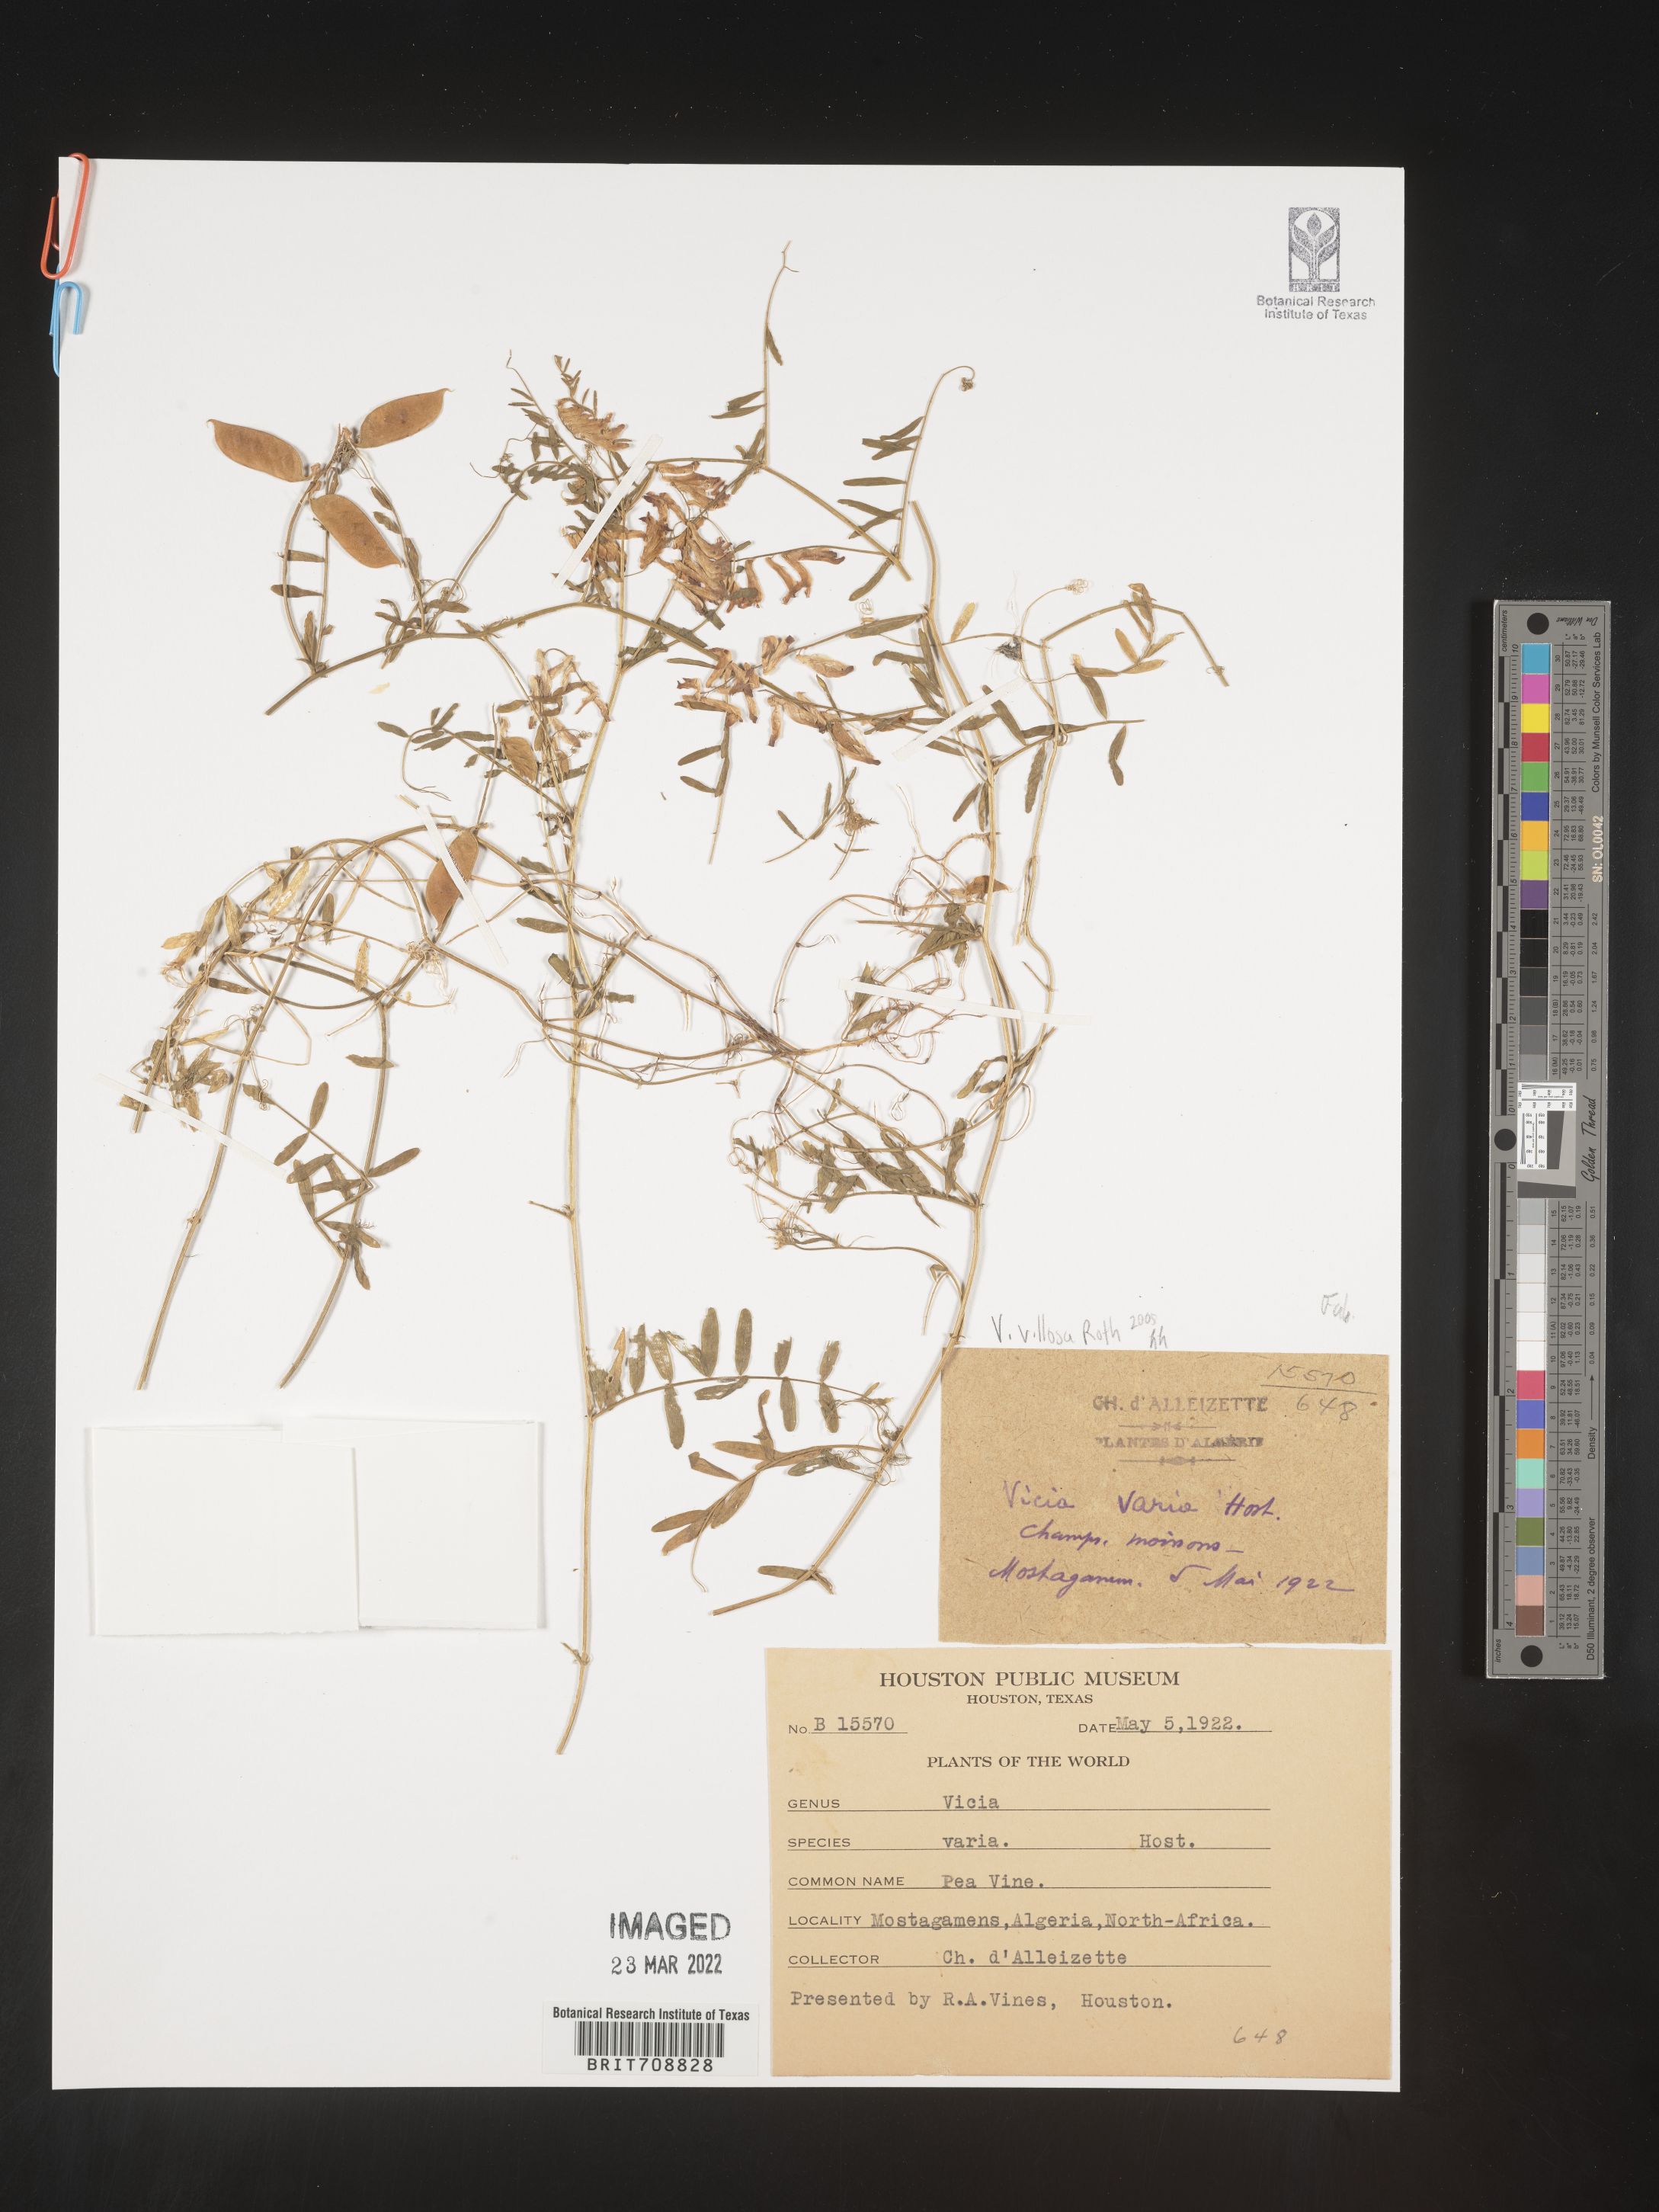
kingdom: Plantae
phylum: Tracheophyta
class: Magnoliopsida
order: Fabales
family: Fabaceae
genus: Vicia
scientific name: Vicia
